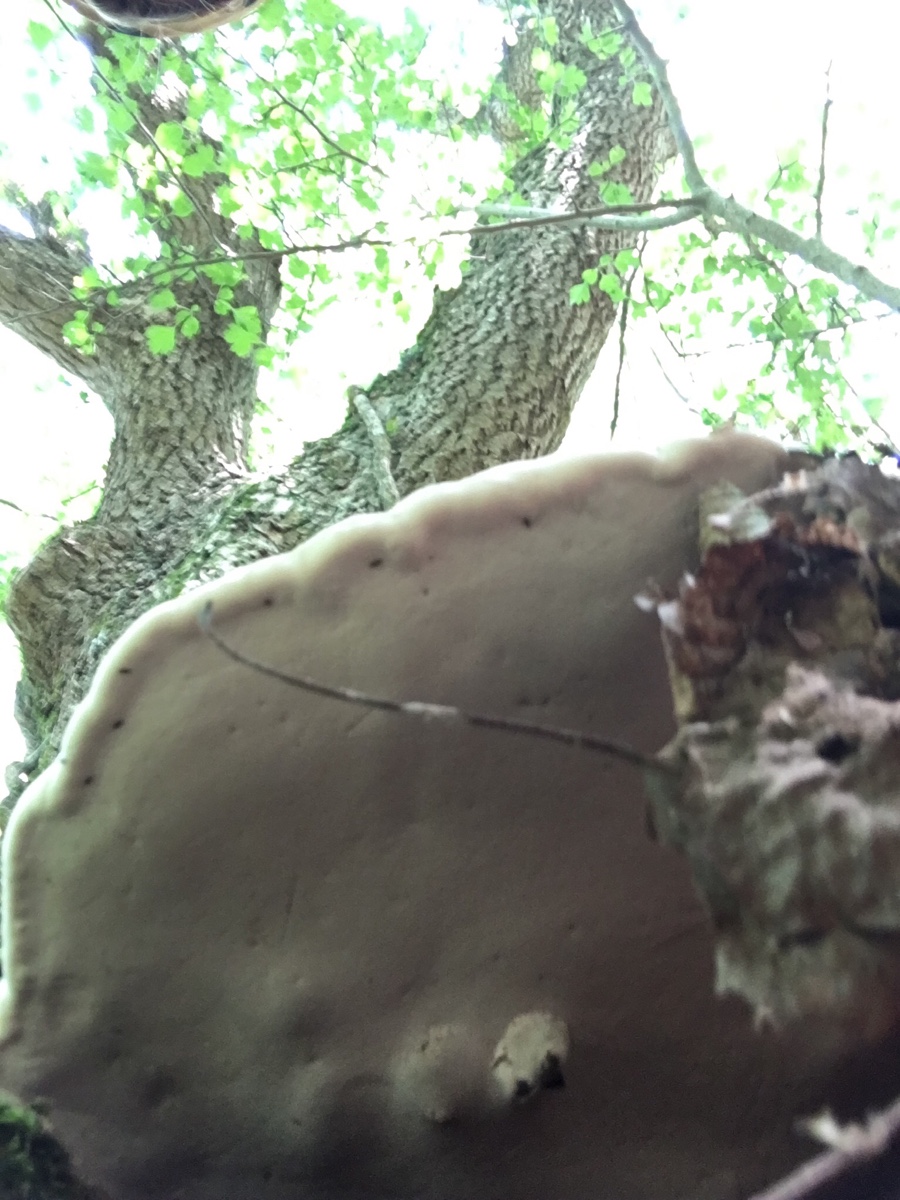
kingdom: Fungi
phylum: Basidiomycota
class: Agaricomycetes
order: Polyporales
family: Polyporaceae
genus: Ganoderma
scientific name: Ganoderma applanatum
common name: flad lakporesvamp
